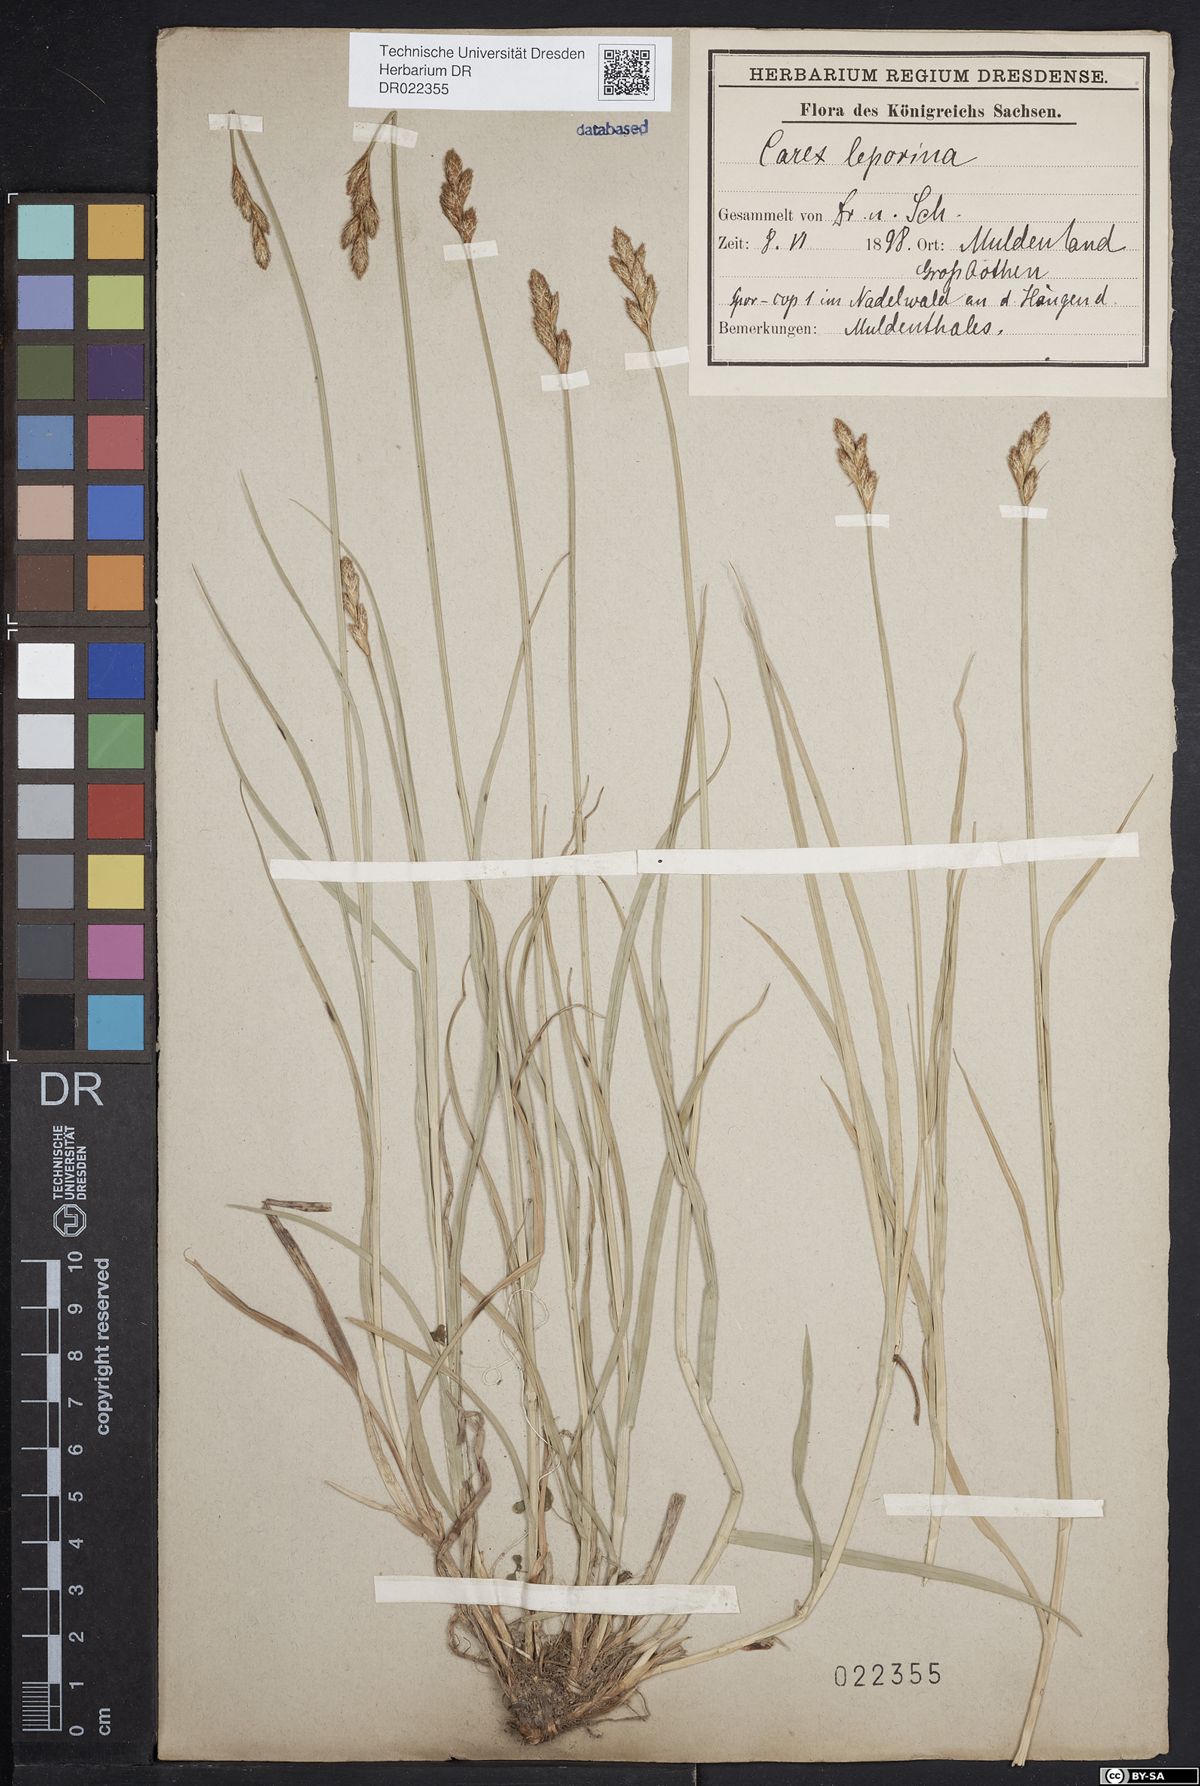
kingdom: Plantae
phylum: Tracheophyta
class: Liliopsida
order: Poales
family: Cyperaceae
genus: Carex
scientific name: Carex leporina
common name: Oval sedge
